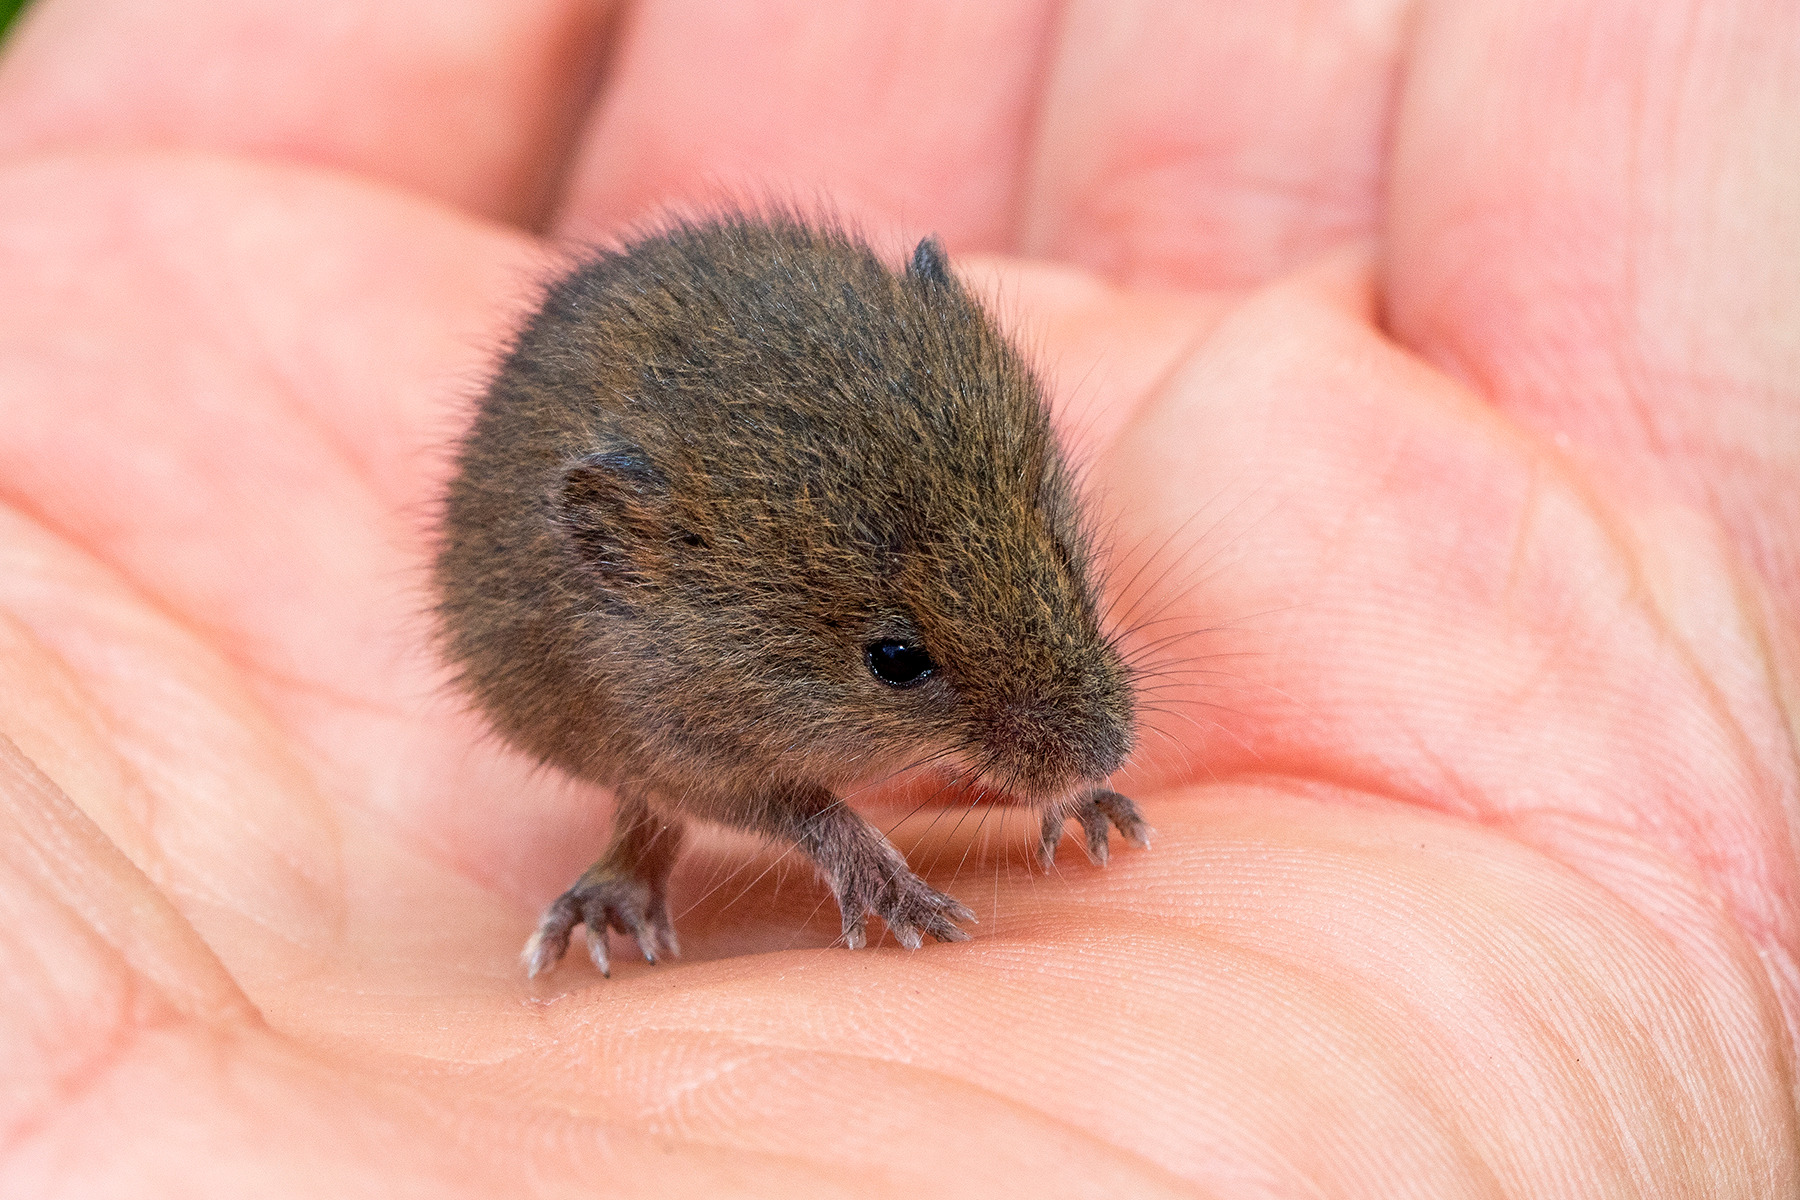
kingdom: Animalia
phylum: Chordata
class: Mammalia
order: Rodentia
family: Muridae
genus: Micromys
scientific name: Micromys minutus
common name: Dværgmus
